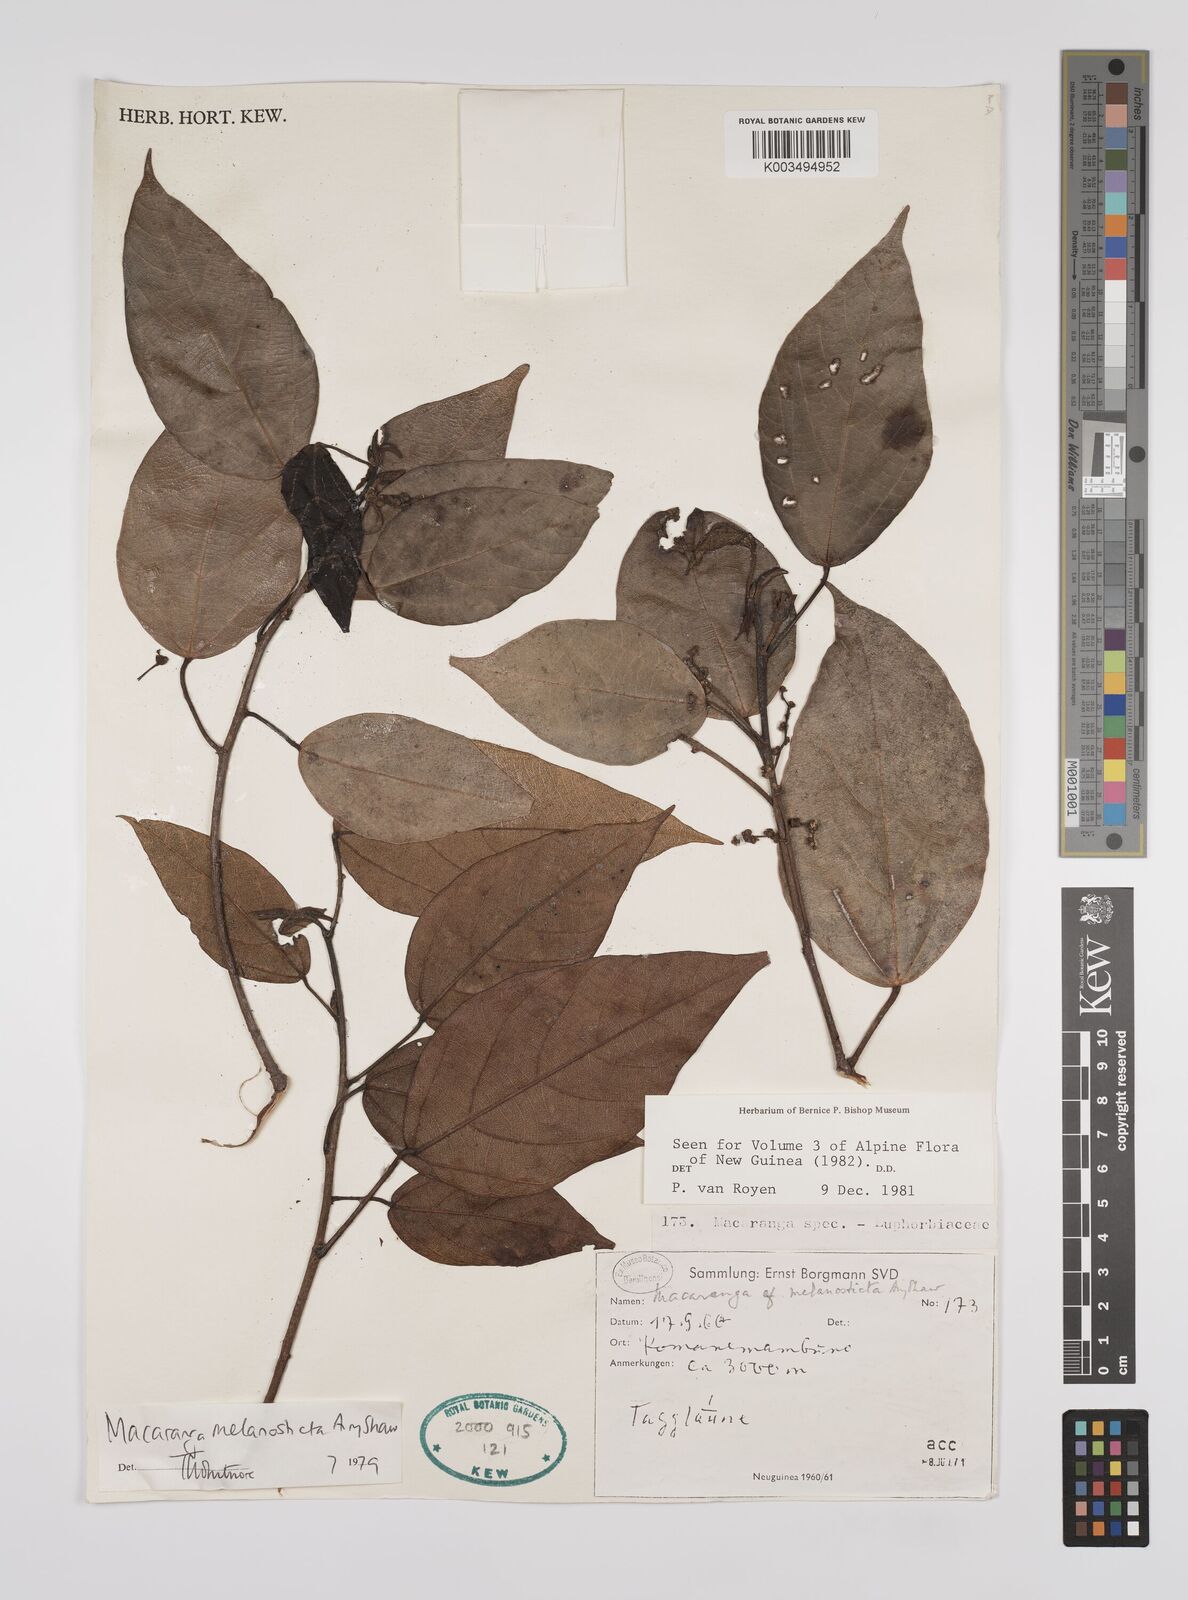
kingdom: Plantae
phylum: Tracheophyta
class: Magnoliopsida
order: Malpighiales
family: Euphorbiaceae
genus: Macaranga
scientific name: Macaranga melanosticta
